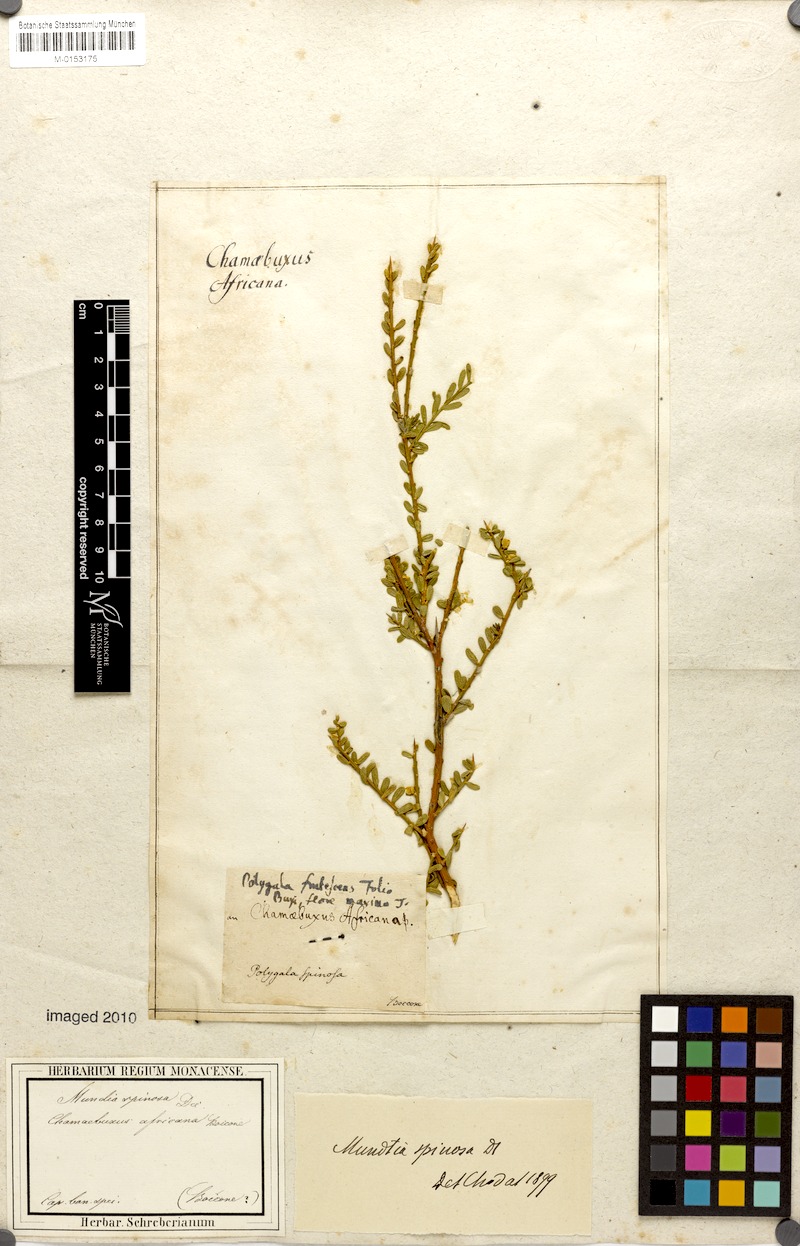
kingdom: Plantae
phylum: Tracheophyta
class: Magnoliopsida
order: Fabales
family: Polygalaceae
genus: Mundtia
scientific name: Mundtia
